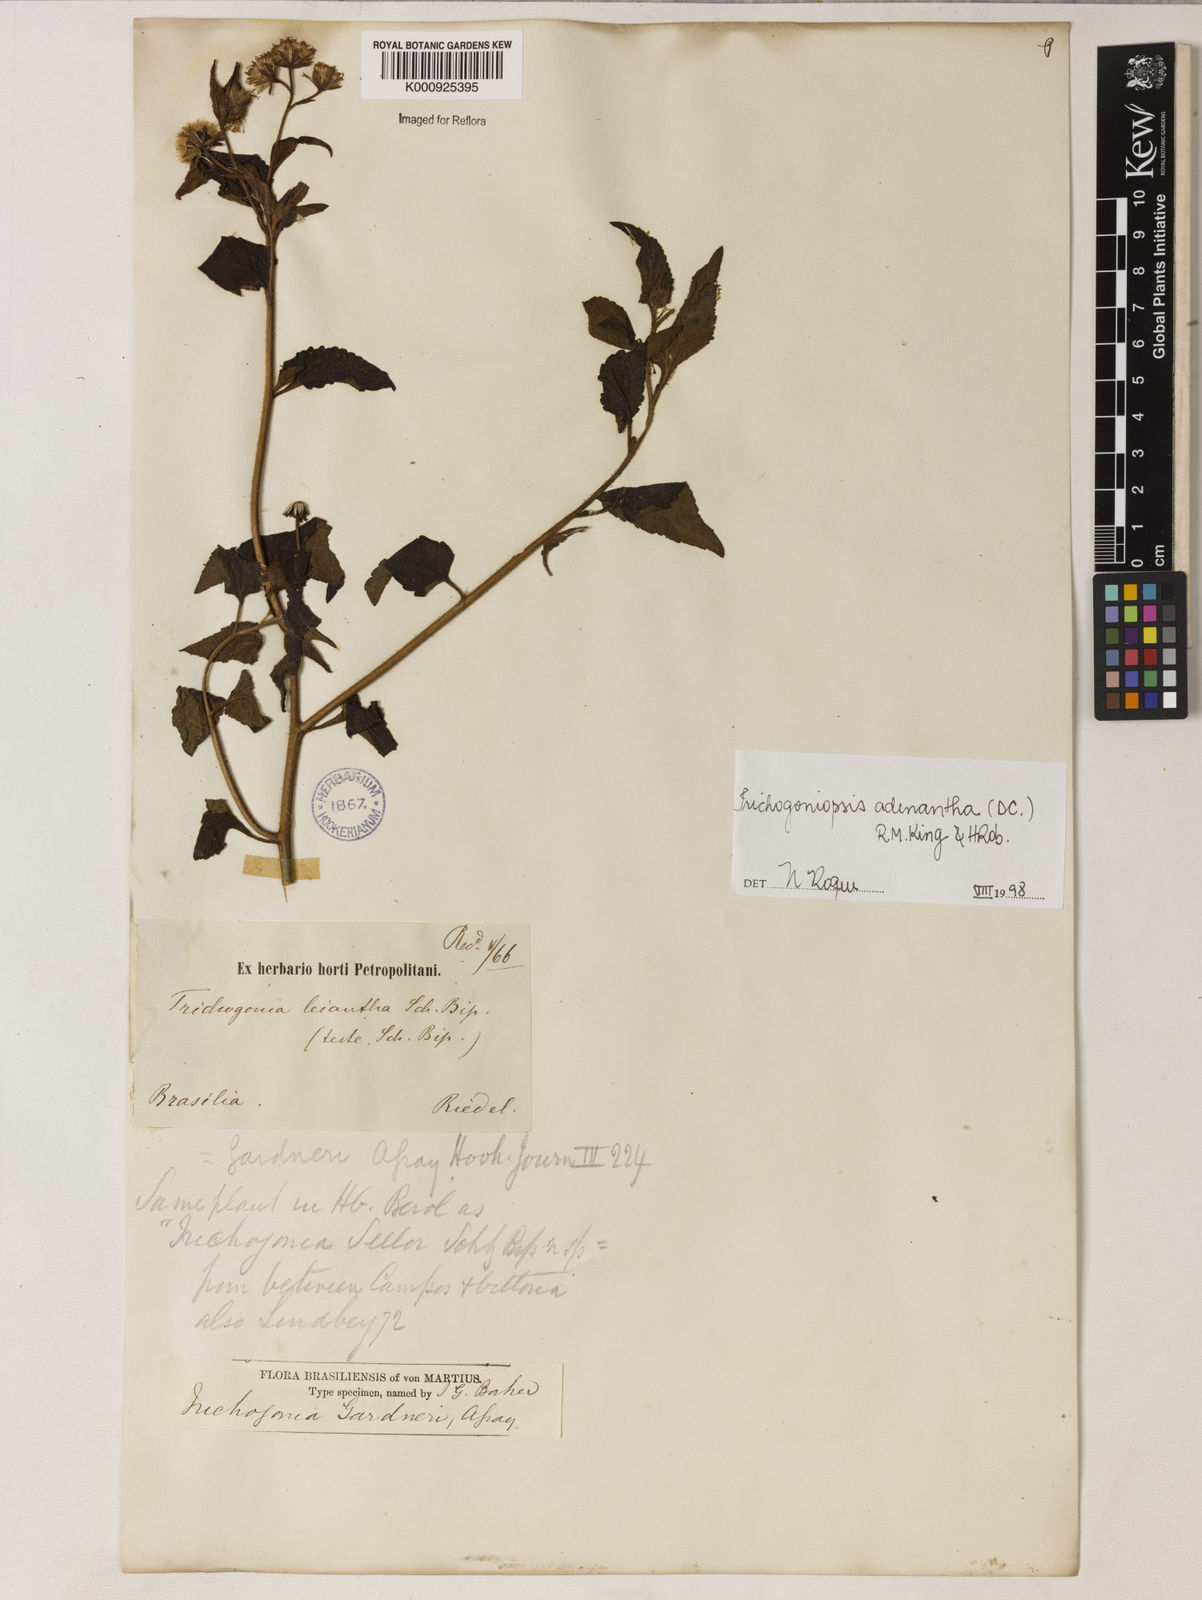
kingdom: Plantae
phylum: Tracheophyta
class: Magnoliopsida
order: Asterales
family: Asteraceae
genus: Trichogoniopsis
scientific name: Trichogoniopsis adenantha
